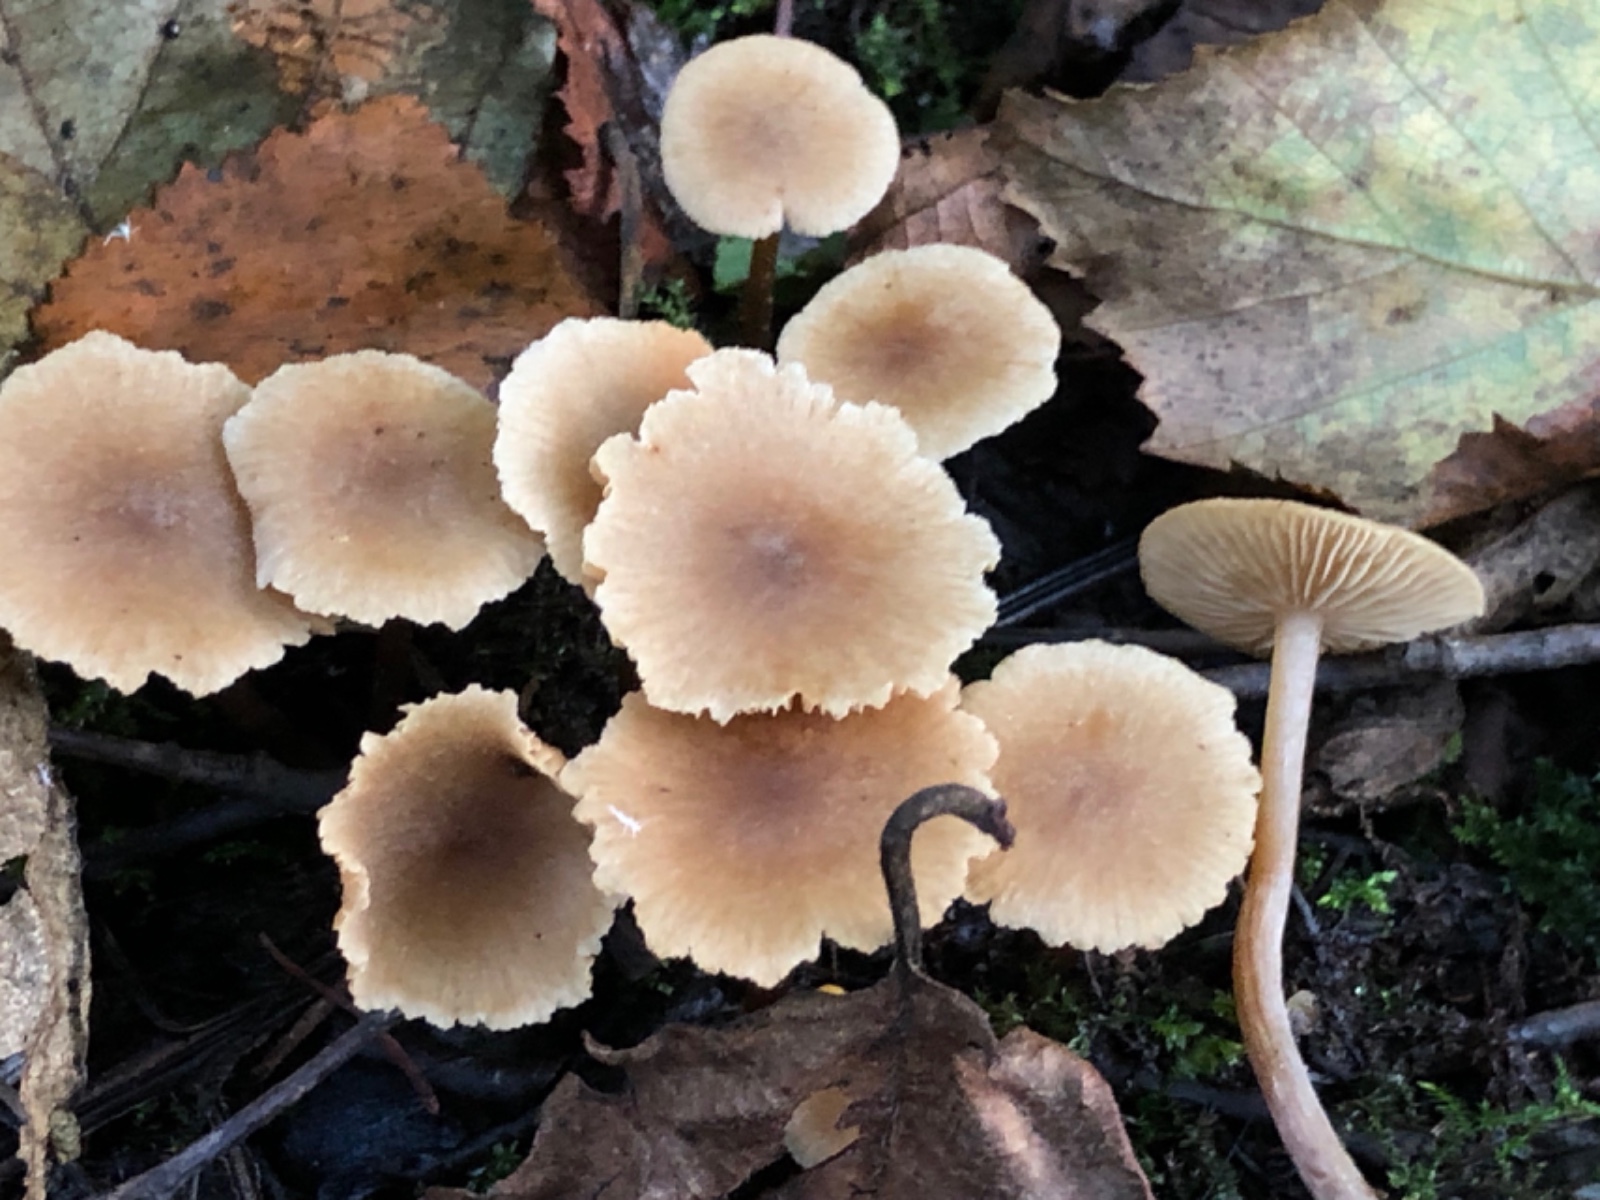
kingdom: Fungi
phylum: Basidiomycota
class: Agaricomycetes
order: Agaricales
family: Hymenogastraceae
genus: Naucoria
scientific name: Naucoria escharioides
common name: lys elle-knaphat
